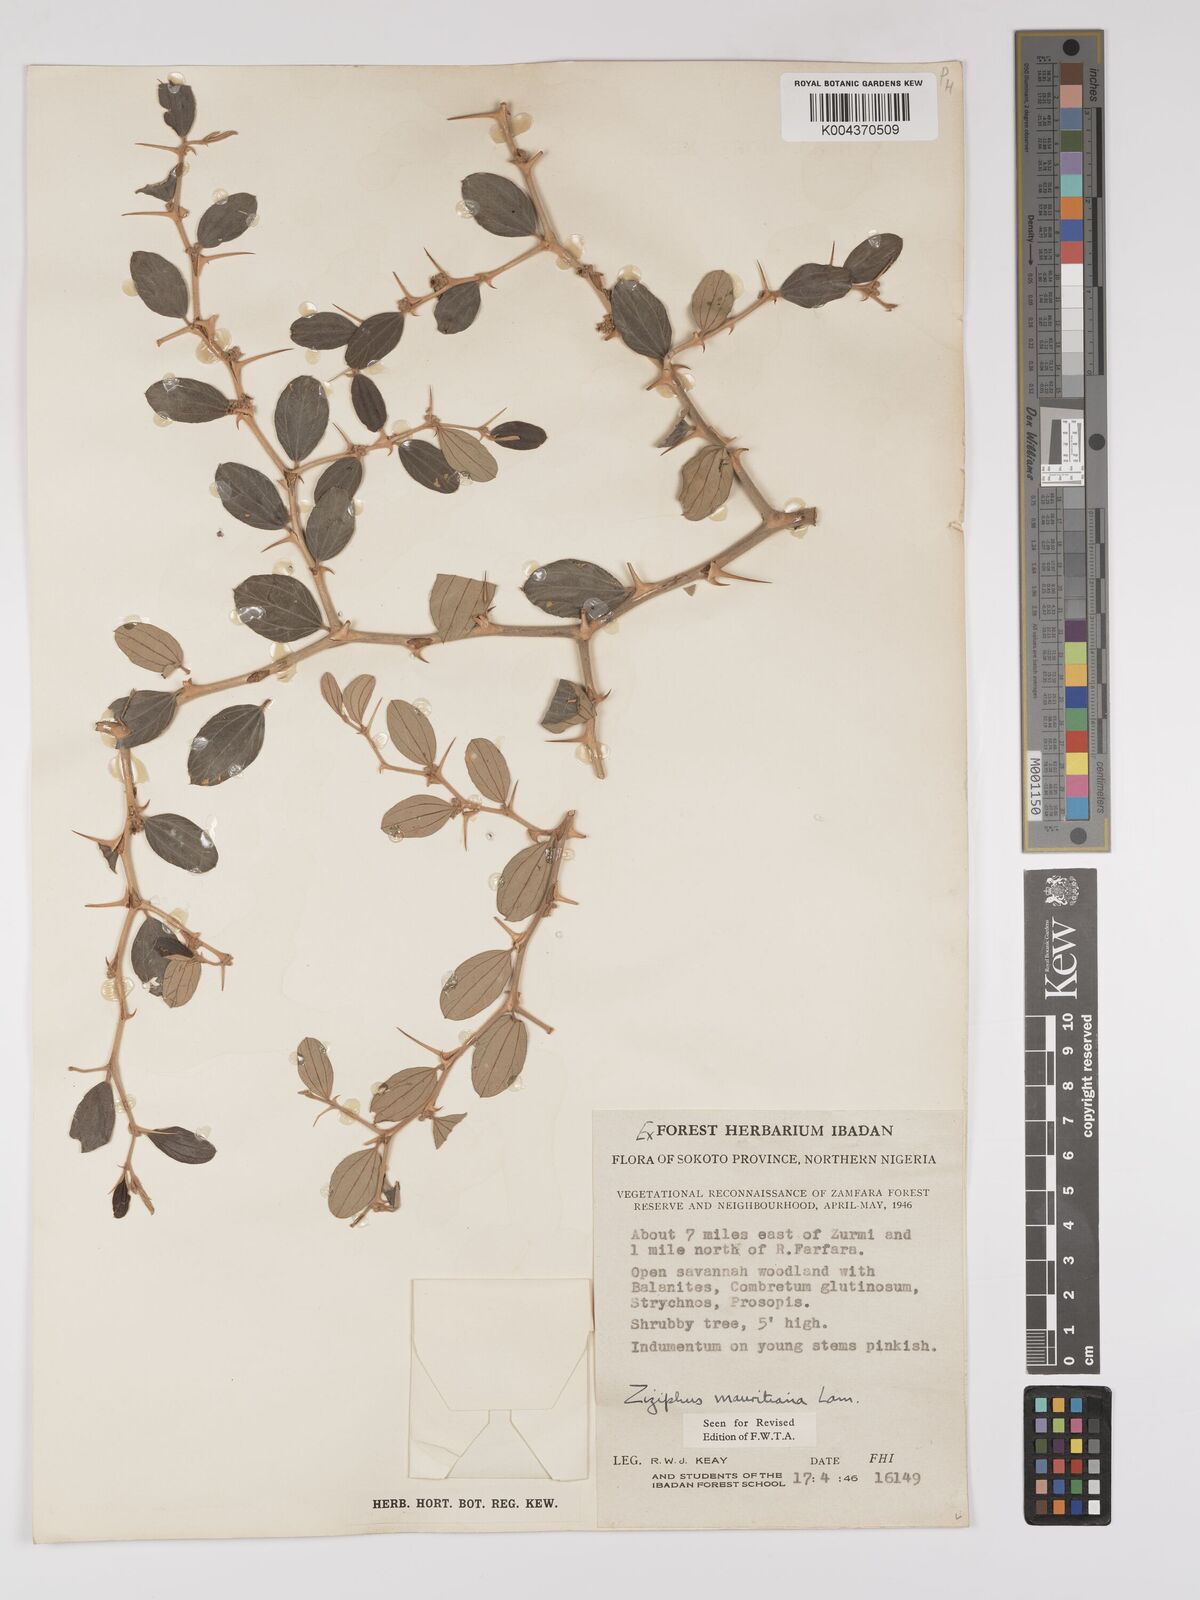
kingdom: Plantae
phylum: Tracheophyta
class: Magnoliopsida
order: Rosales
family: Rhamnaceae
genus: Ziziphus
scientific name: Ziziphus mauritiana
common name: Indian jujube
